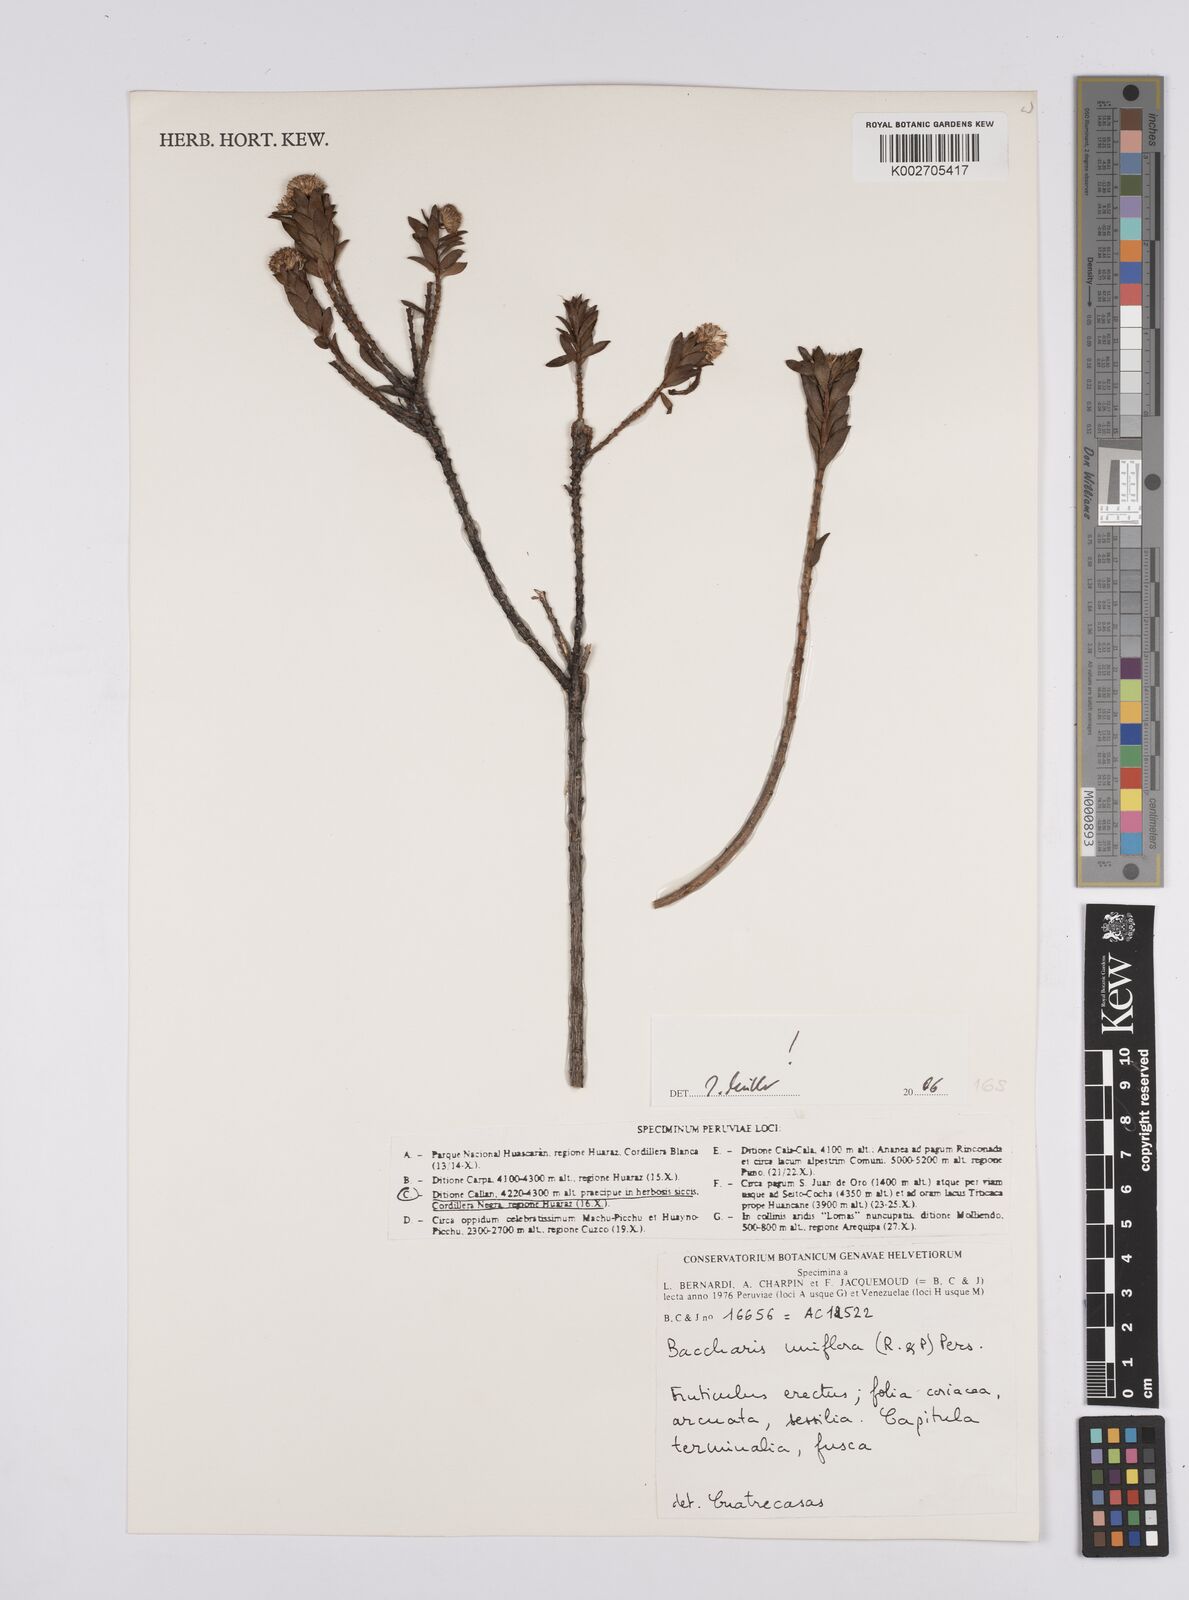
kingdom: Plantae
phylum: Tracheophyta
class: Magnoliopsida
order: Asterales
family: Asteraceae
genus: Baccharis
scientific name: Baccharis uniflora
